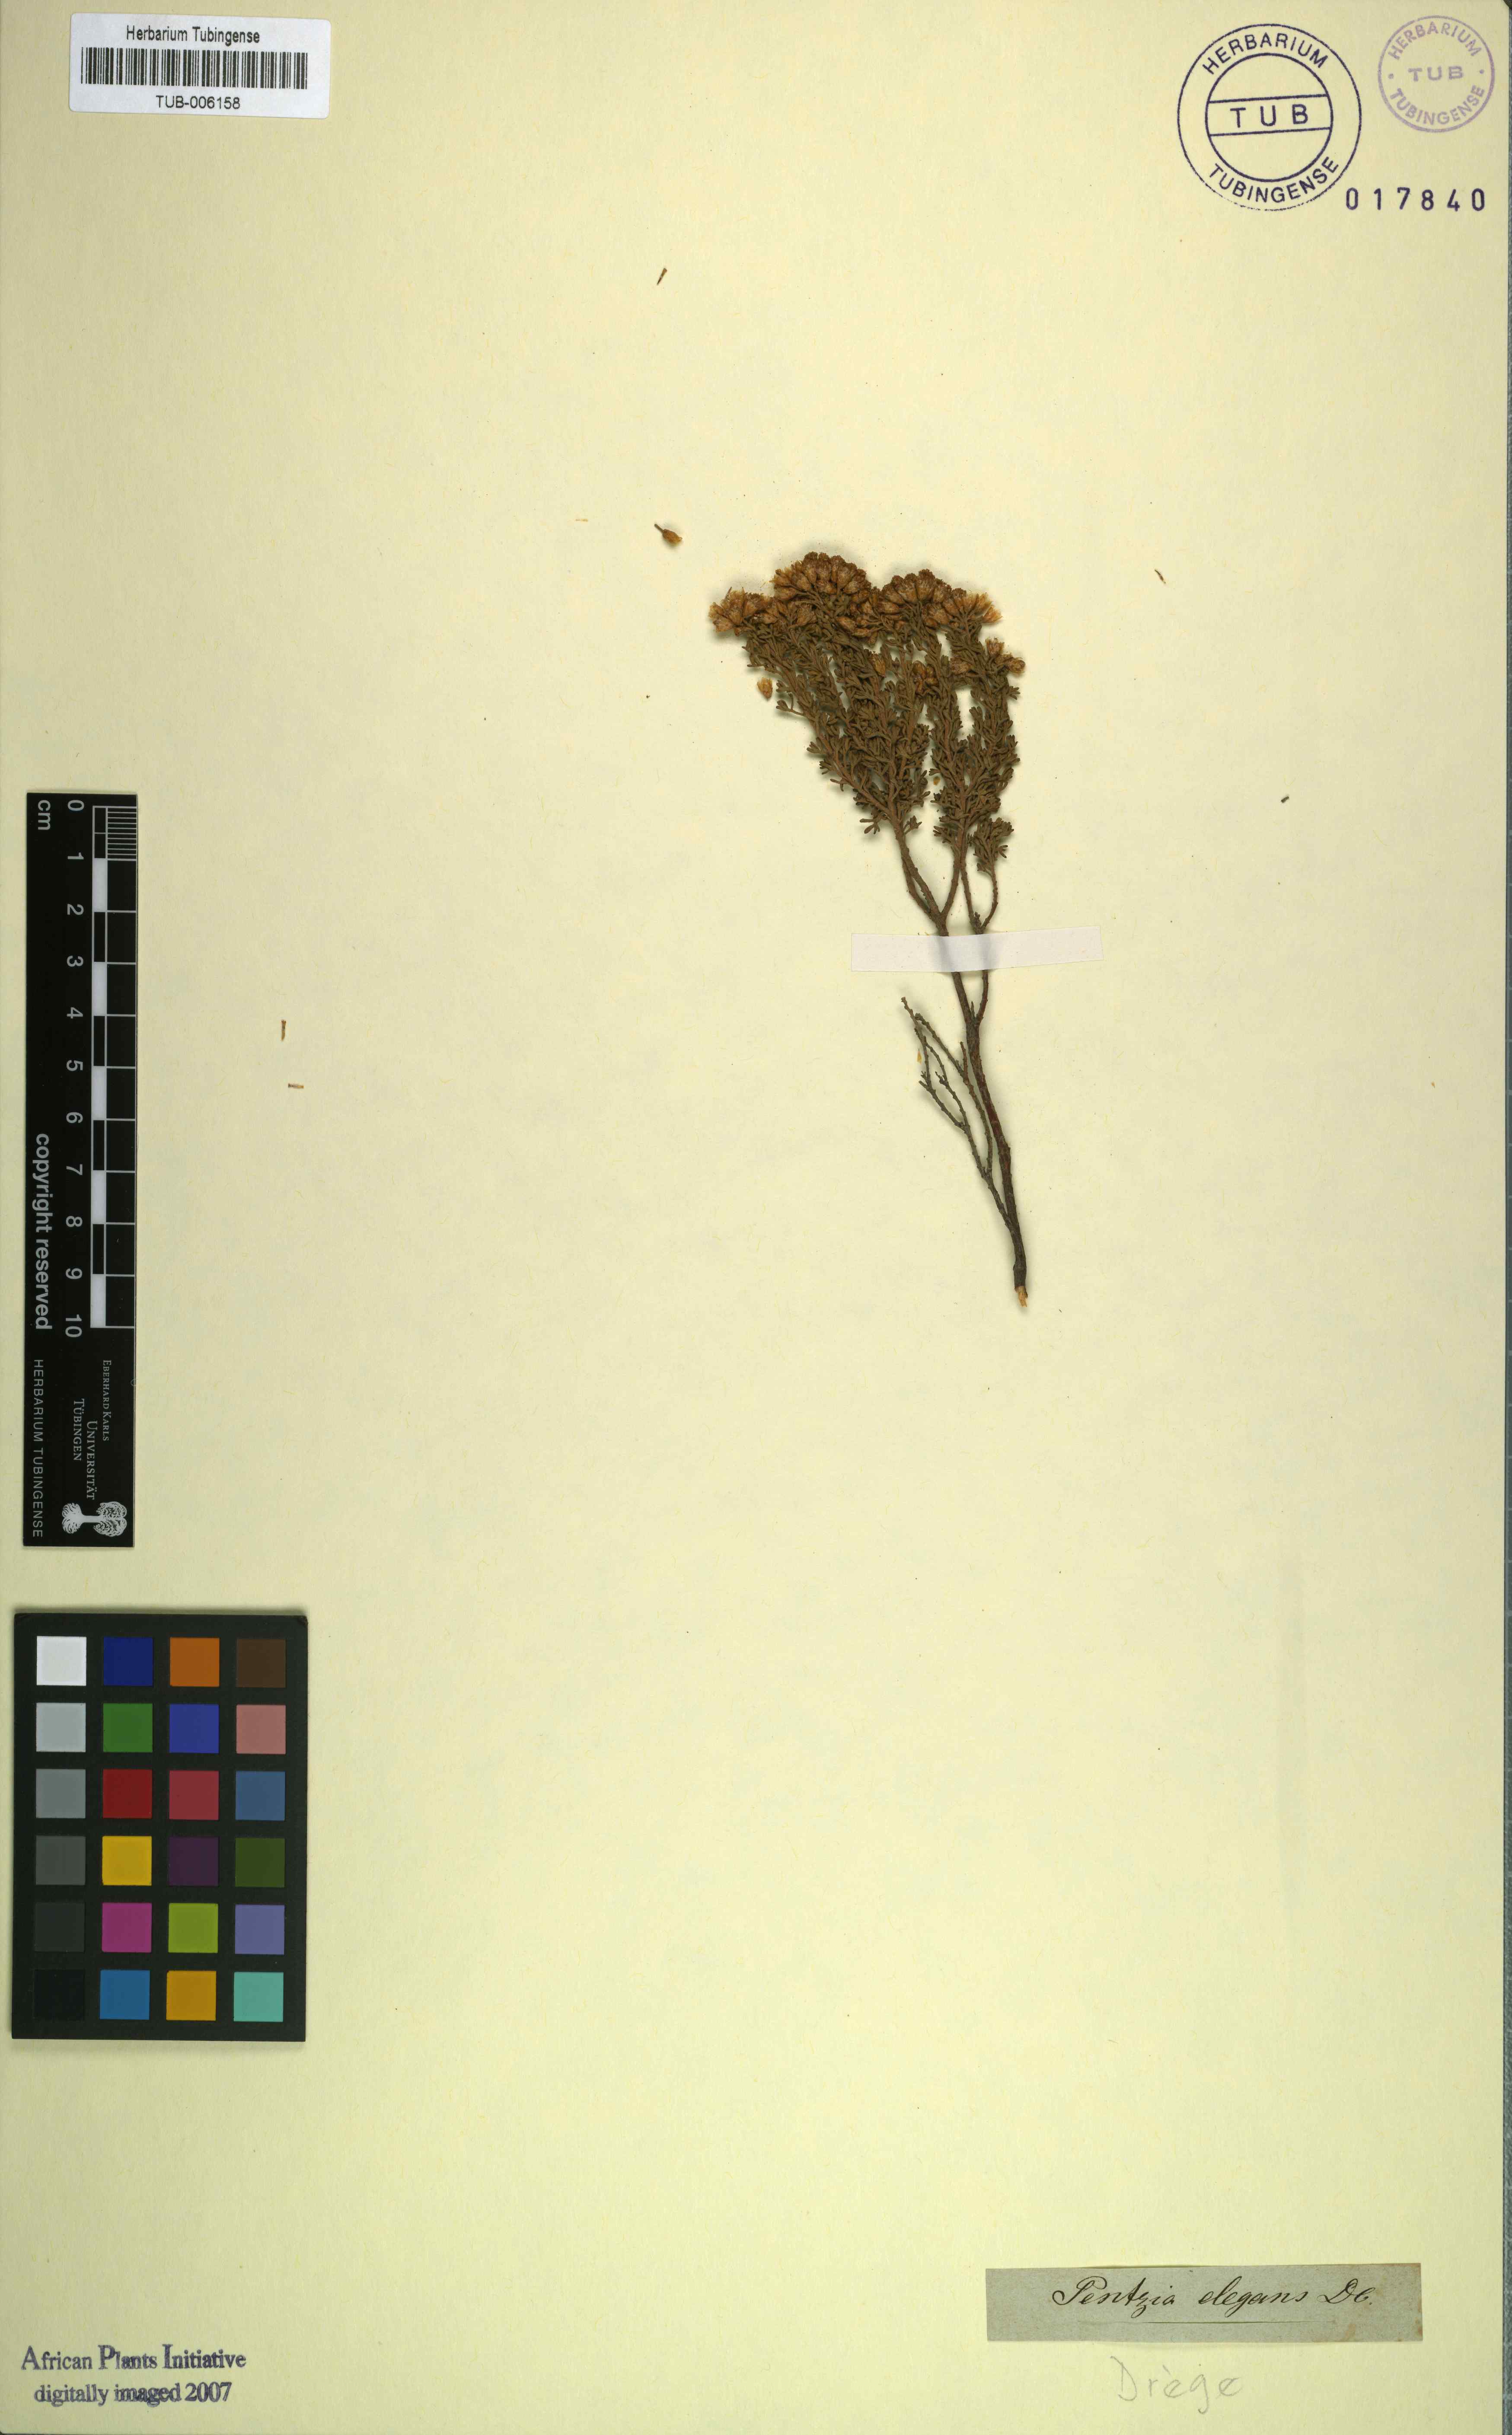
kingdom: Plantae
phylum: Tracheophyta
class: Magnoliopsida
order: Asterales
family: Asteraceae
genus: Pentzia
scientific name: Pentzia elegans
